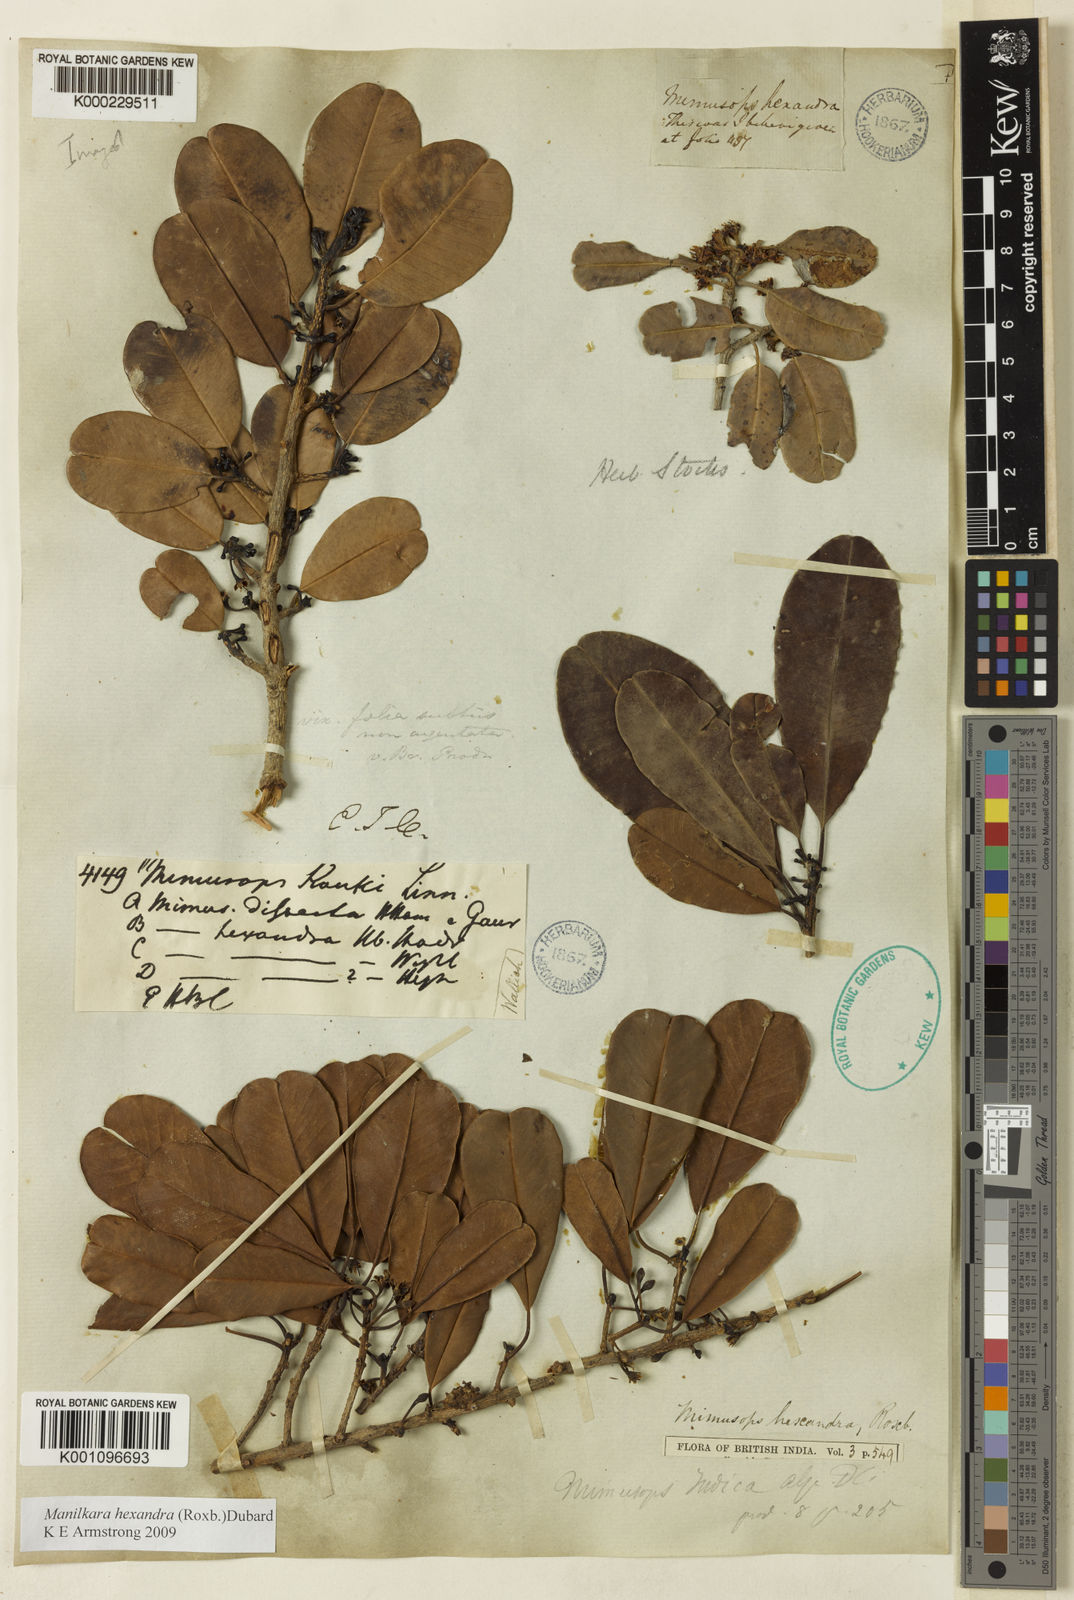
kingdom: Plantae
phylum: Tracheophyta
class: Magnoliopsida
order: Ericales
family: Sapotaceae
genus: Manilkara
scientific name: Manilkara hexandra
